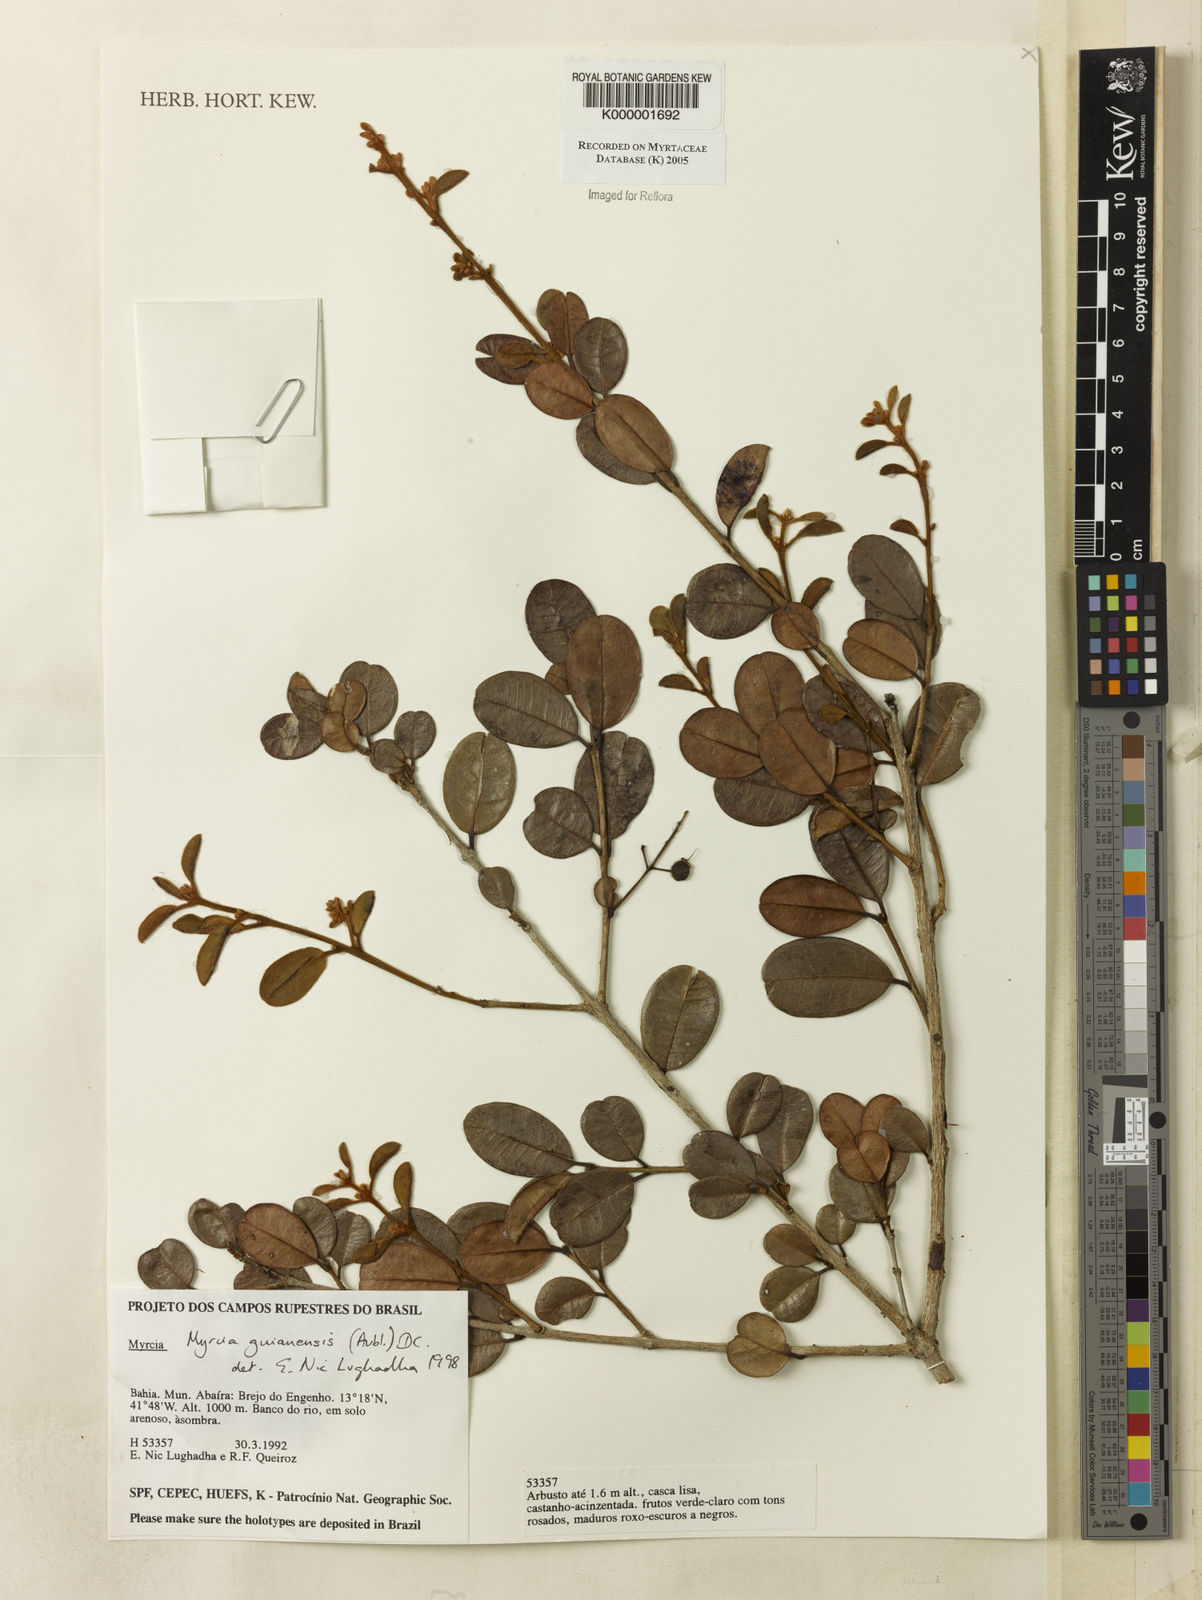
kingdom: Plantae
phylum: Tracheophyta
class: Magnoliopsida
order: Myrtales
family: Myrtaceae
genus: Myrcia
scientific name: Myrcia guianensis
